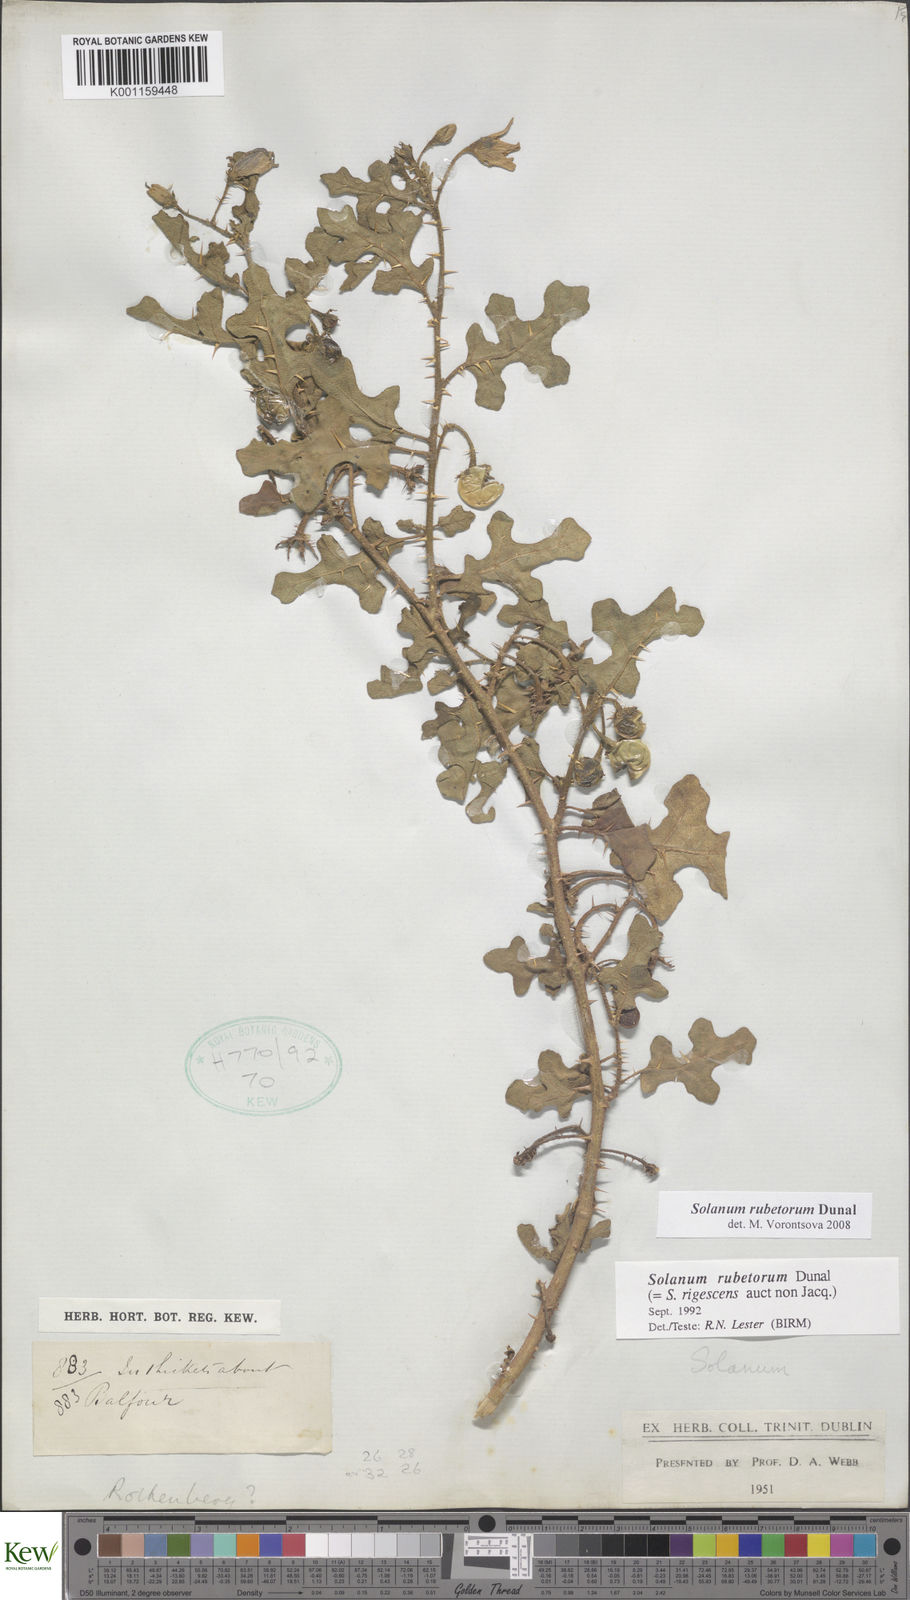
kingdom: Plantae
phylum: Tracheophyta
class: Magnoliopsida
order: Solanales
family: Solanaceae
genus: Solanum
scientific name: Solanum rubetorum
